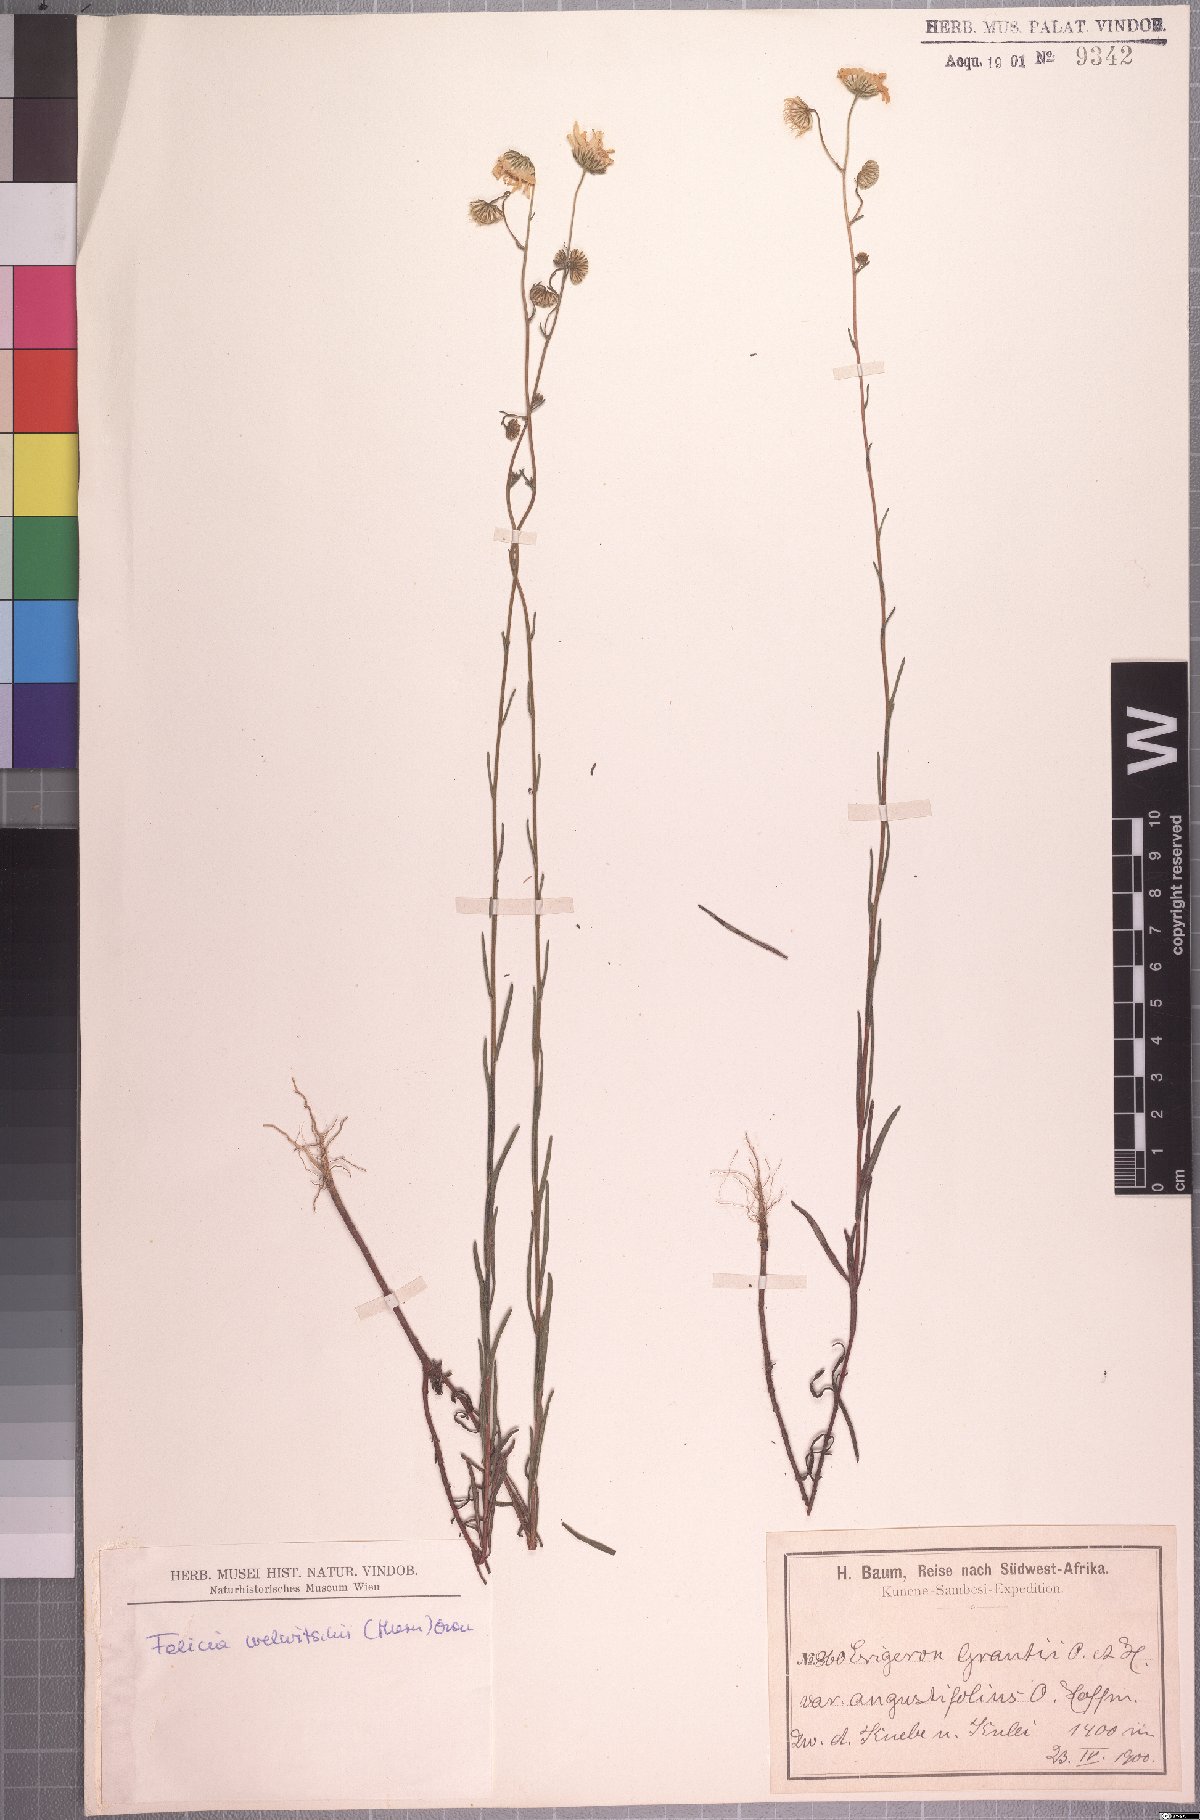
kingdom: Plantae
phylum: Tracheophyta
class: Magnoliopsida
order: Asterales
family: Asteraceae
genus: Felicia
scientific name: Felicia welwitschii
